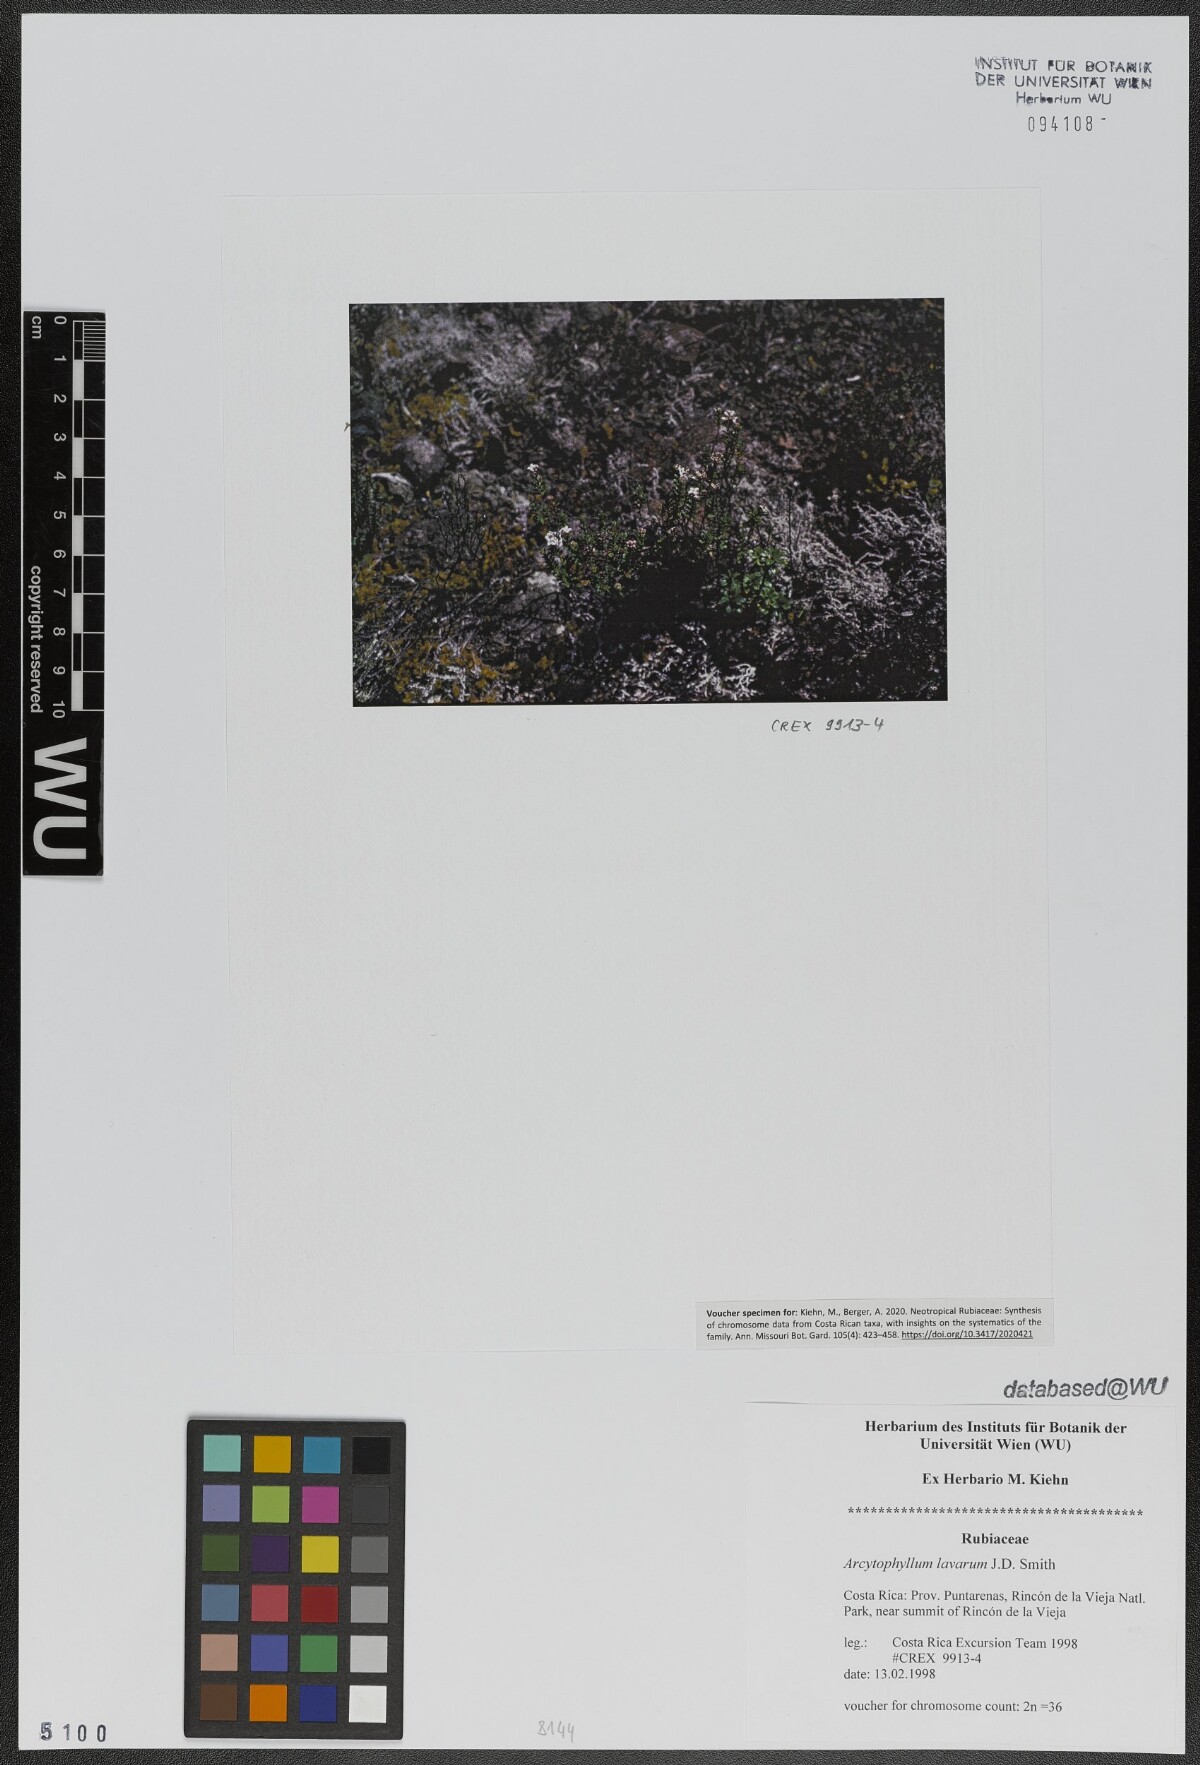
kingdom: Plantae
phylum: Tracheophyta
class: Magnoliopsida
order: Gentianales
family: Rubiaceae
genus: Arcytophyllum
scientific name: Arcytophyllum lavarum
